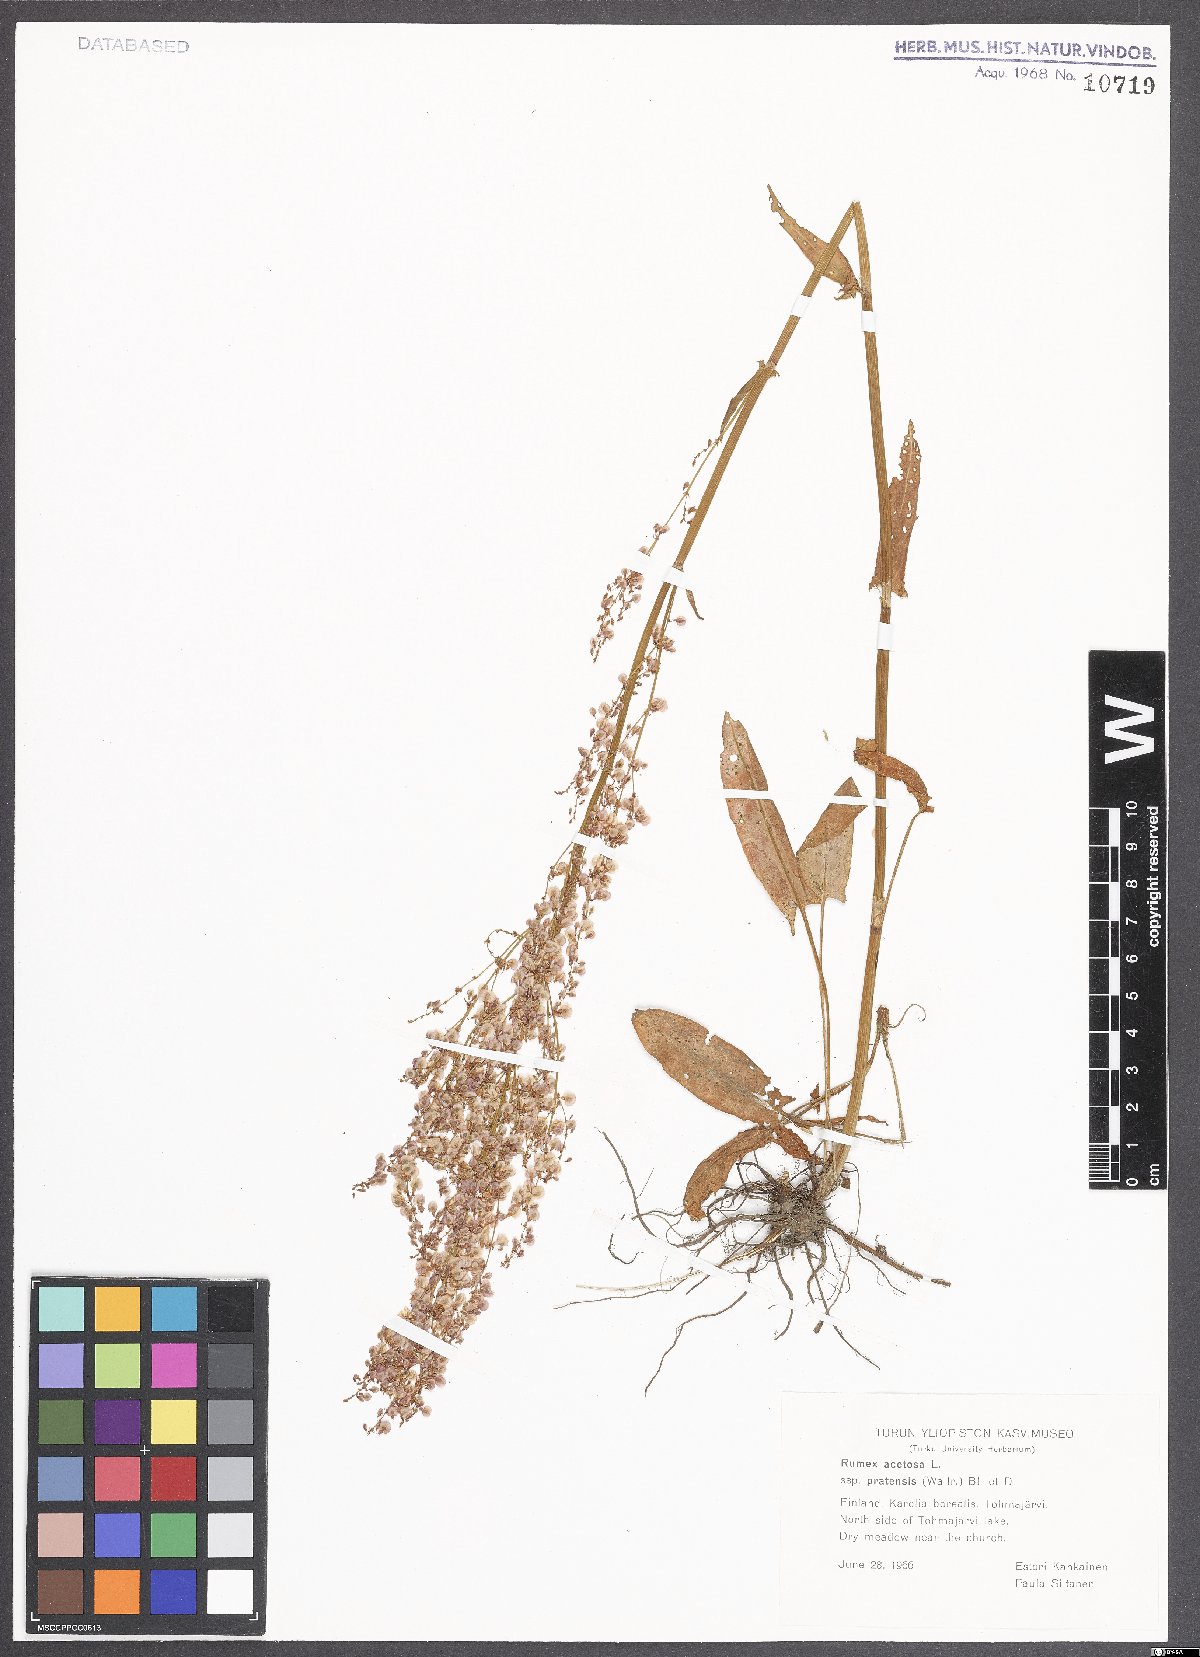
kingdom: Plantae
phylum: Tracheophyta
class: Magnoliopsida
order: Caryophyllales
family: Polygonaceae
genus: Rumex
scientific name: Rumex acetosa
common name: Garden sorrel
